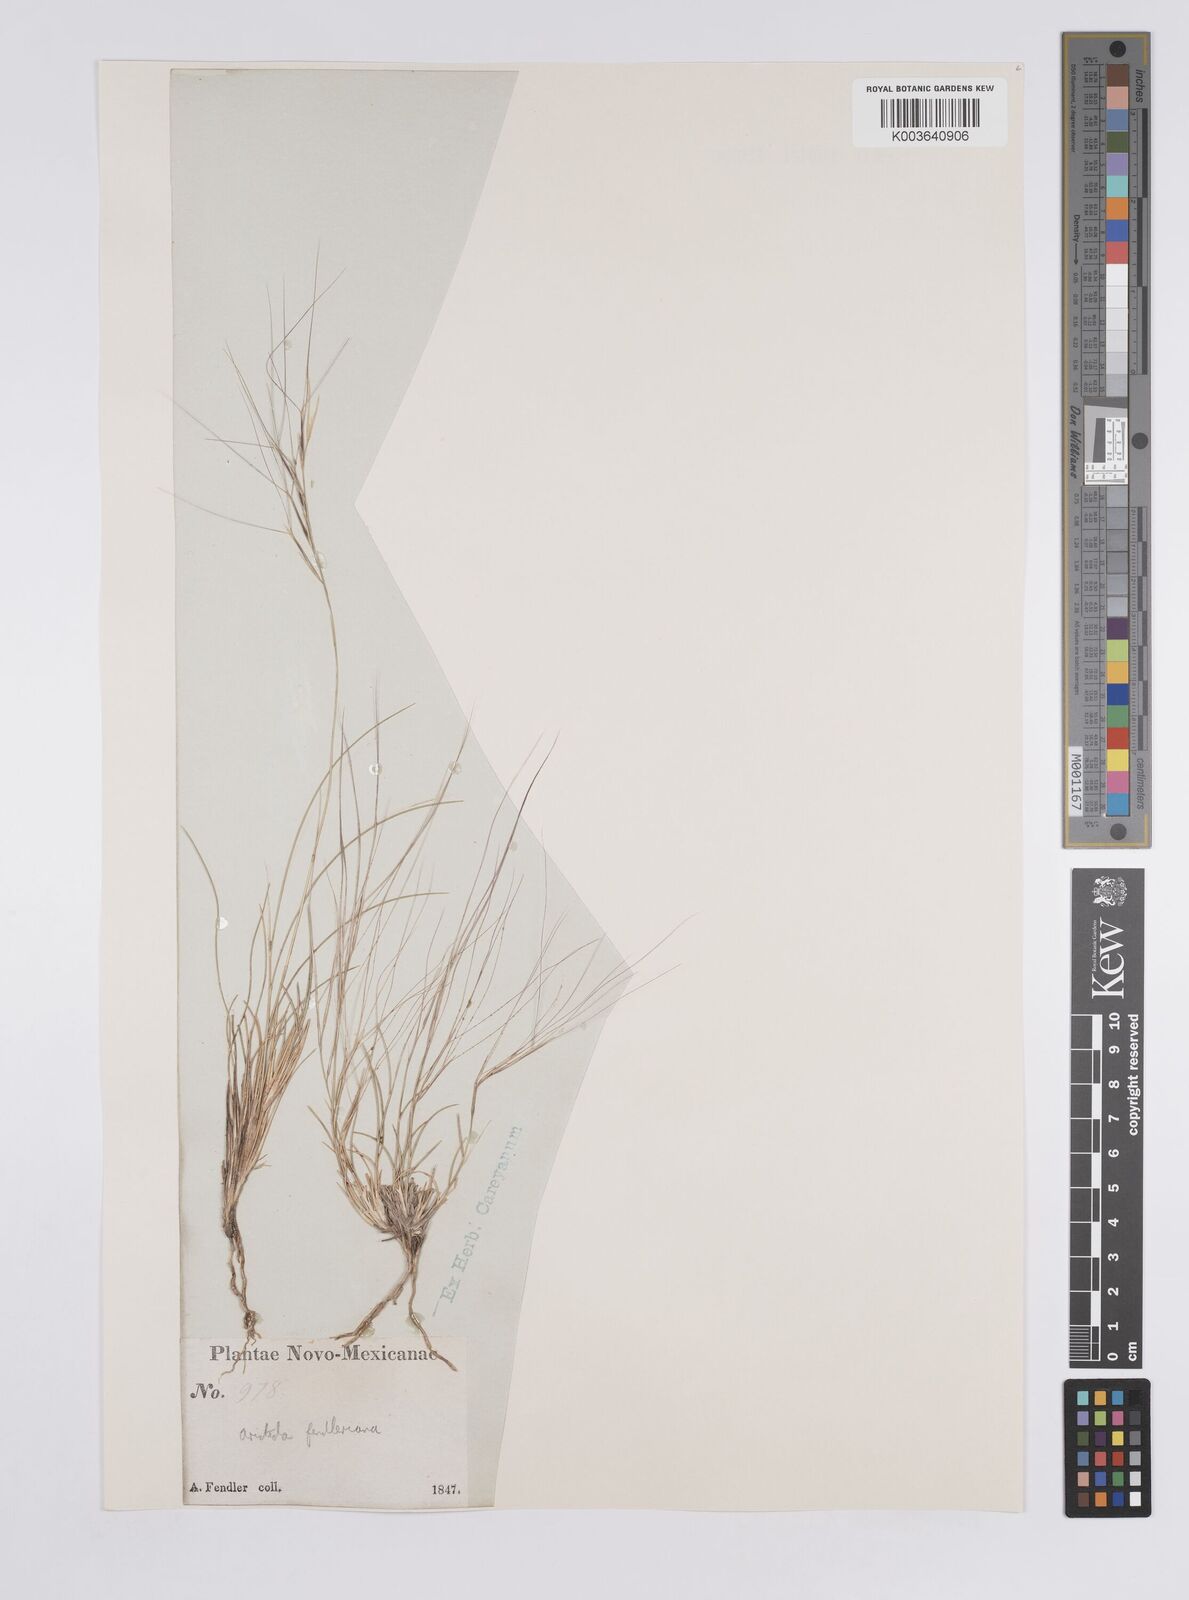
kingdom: Plantae
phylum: Tracheophyta
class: Liliopsida
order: Poales
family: Poaceae
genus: Aristida
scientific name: Aristida purpurea
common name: Purple threeawn
